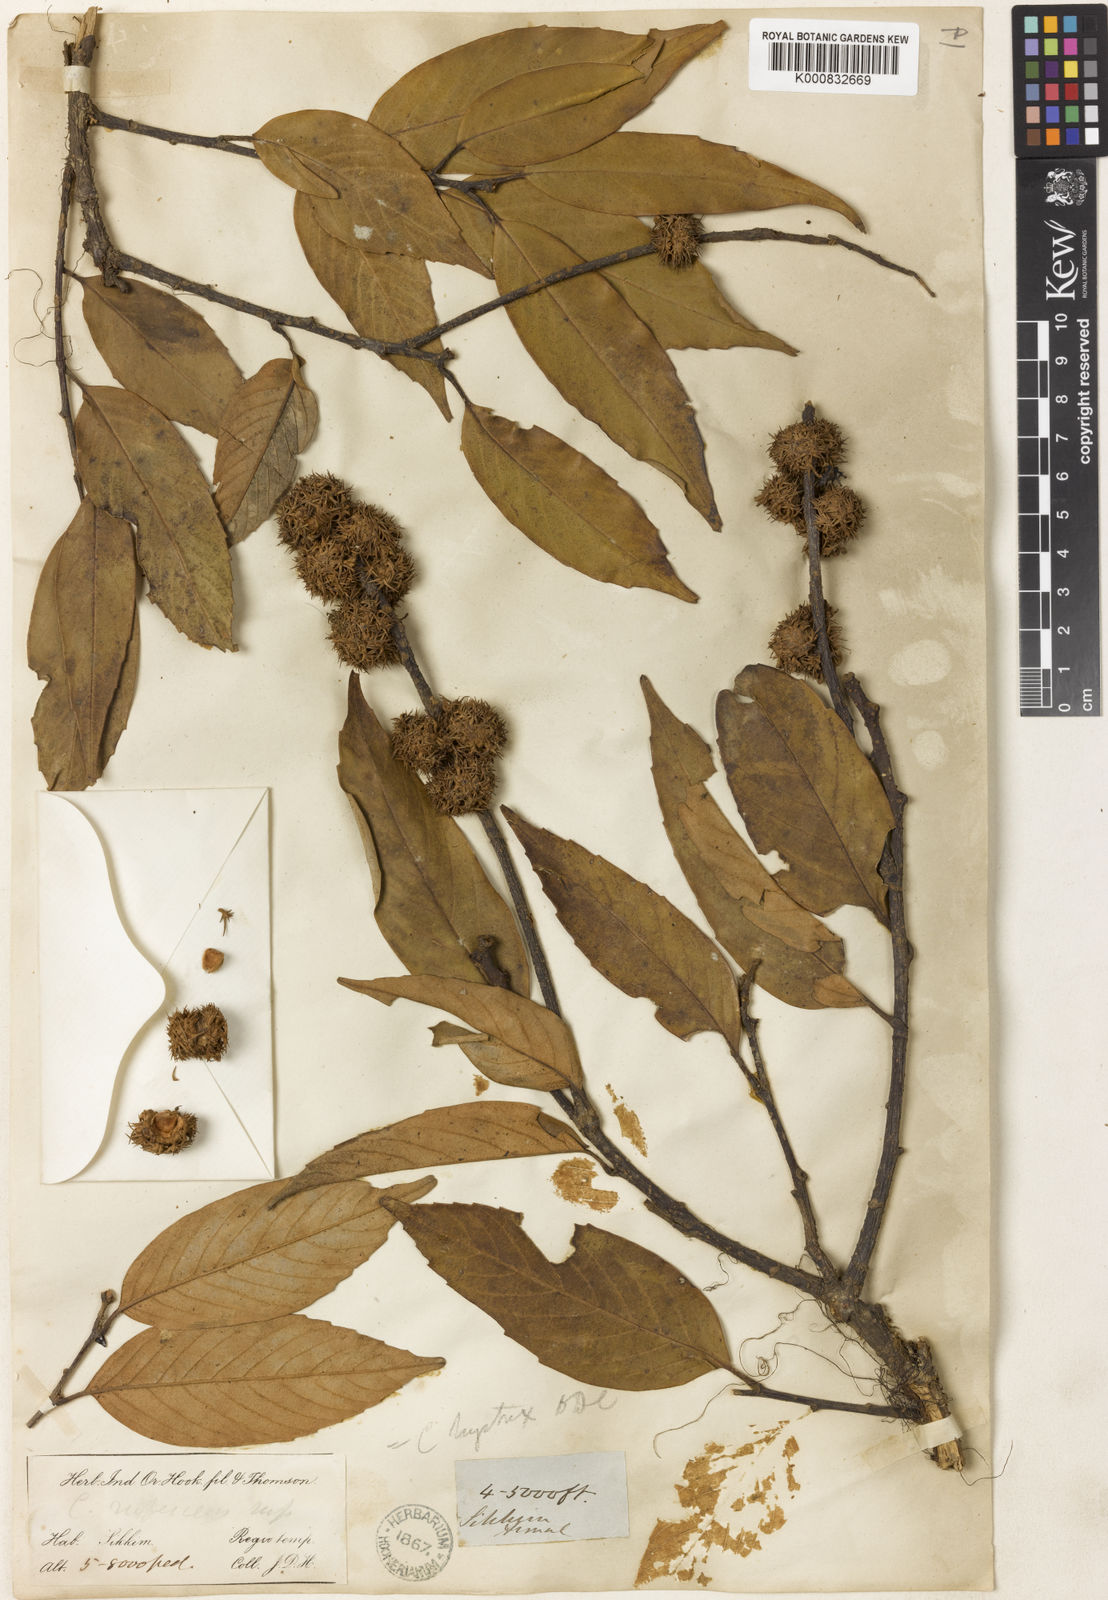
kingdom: Plantae
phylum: Tracheophyta
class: Magnoliopsida
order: Fagales
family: Fagaceae
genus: Castanopsis
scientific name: Castanopsis
